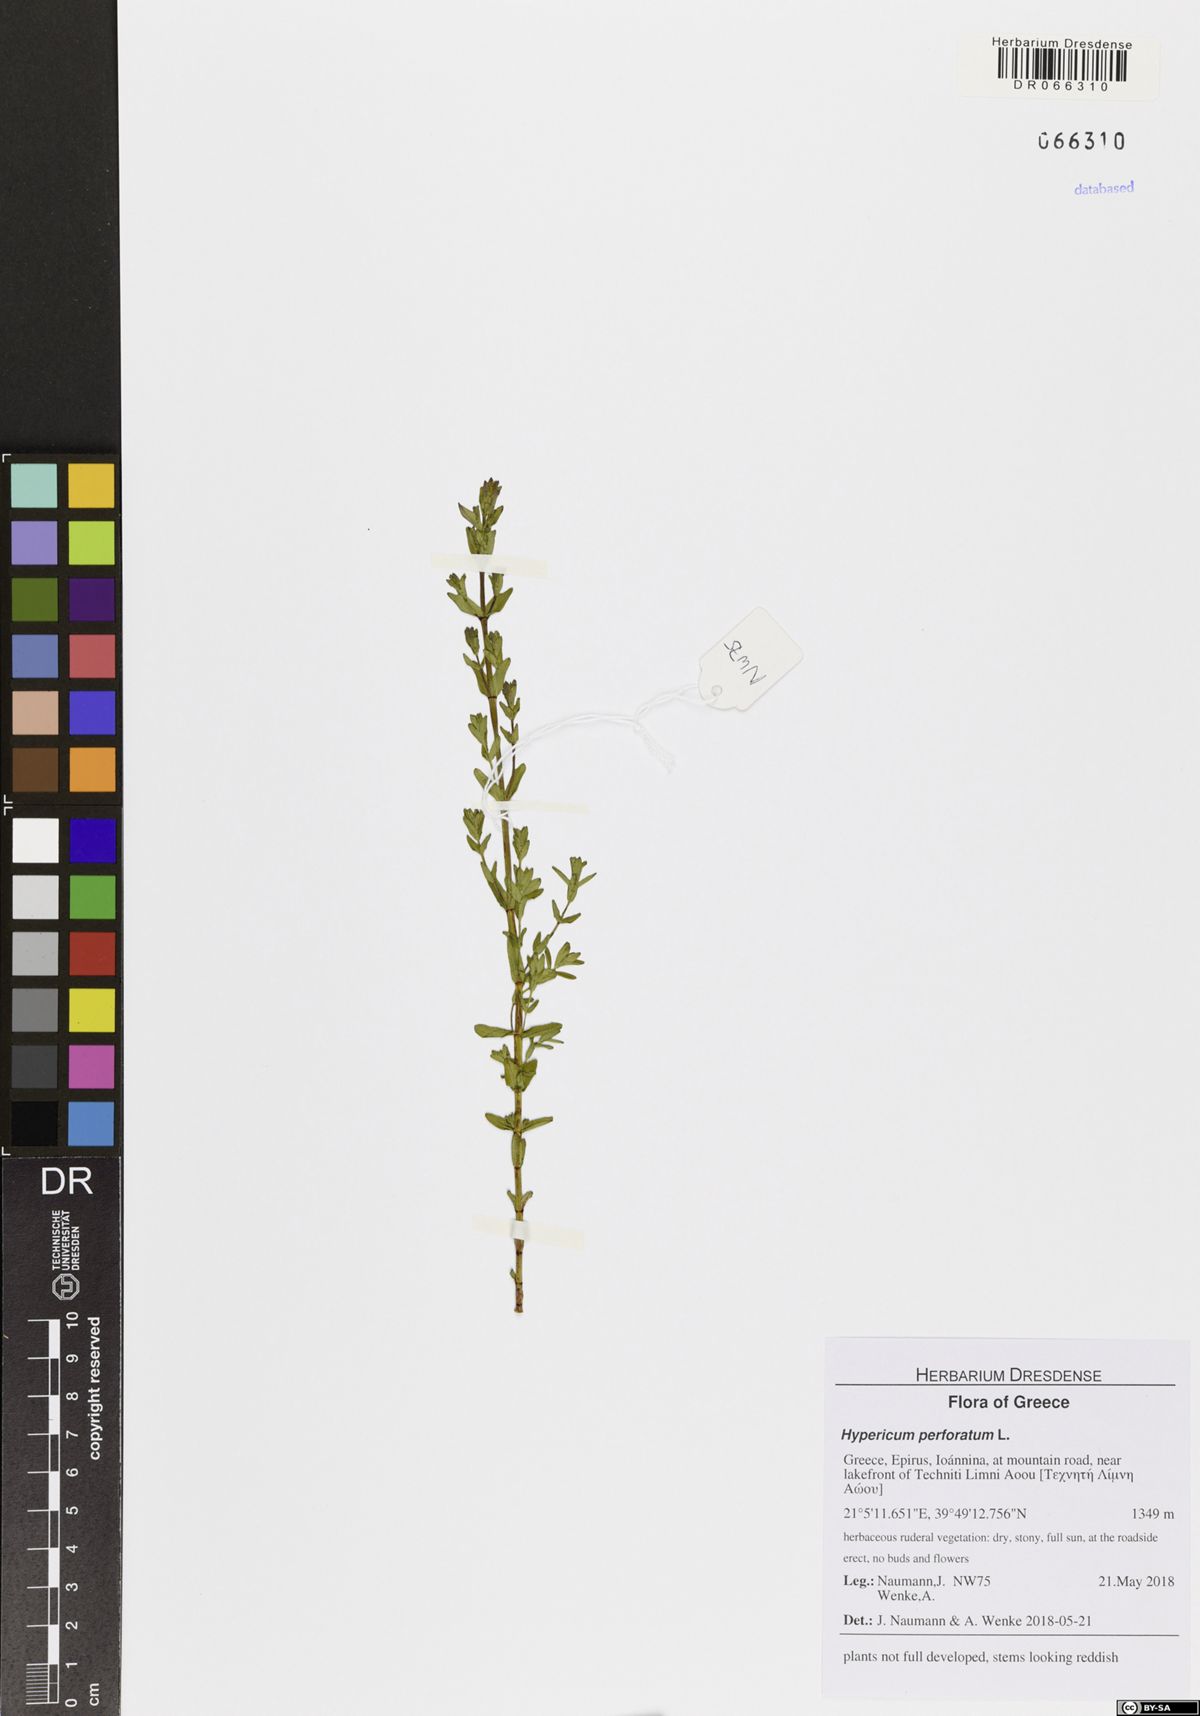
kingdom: Plantae
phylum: Tracheophyta
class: Magnoliopsida
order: Malpighiales
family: Hypericaceae
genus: Hypericum
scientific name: Hypericum perforatum
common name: Common st. johnswort
